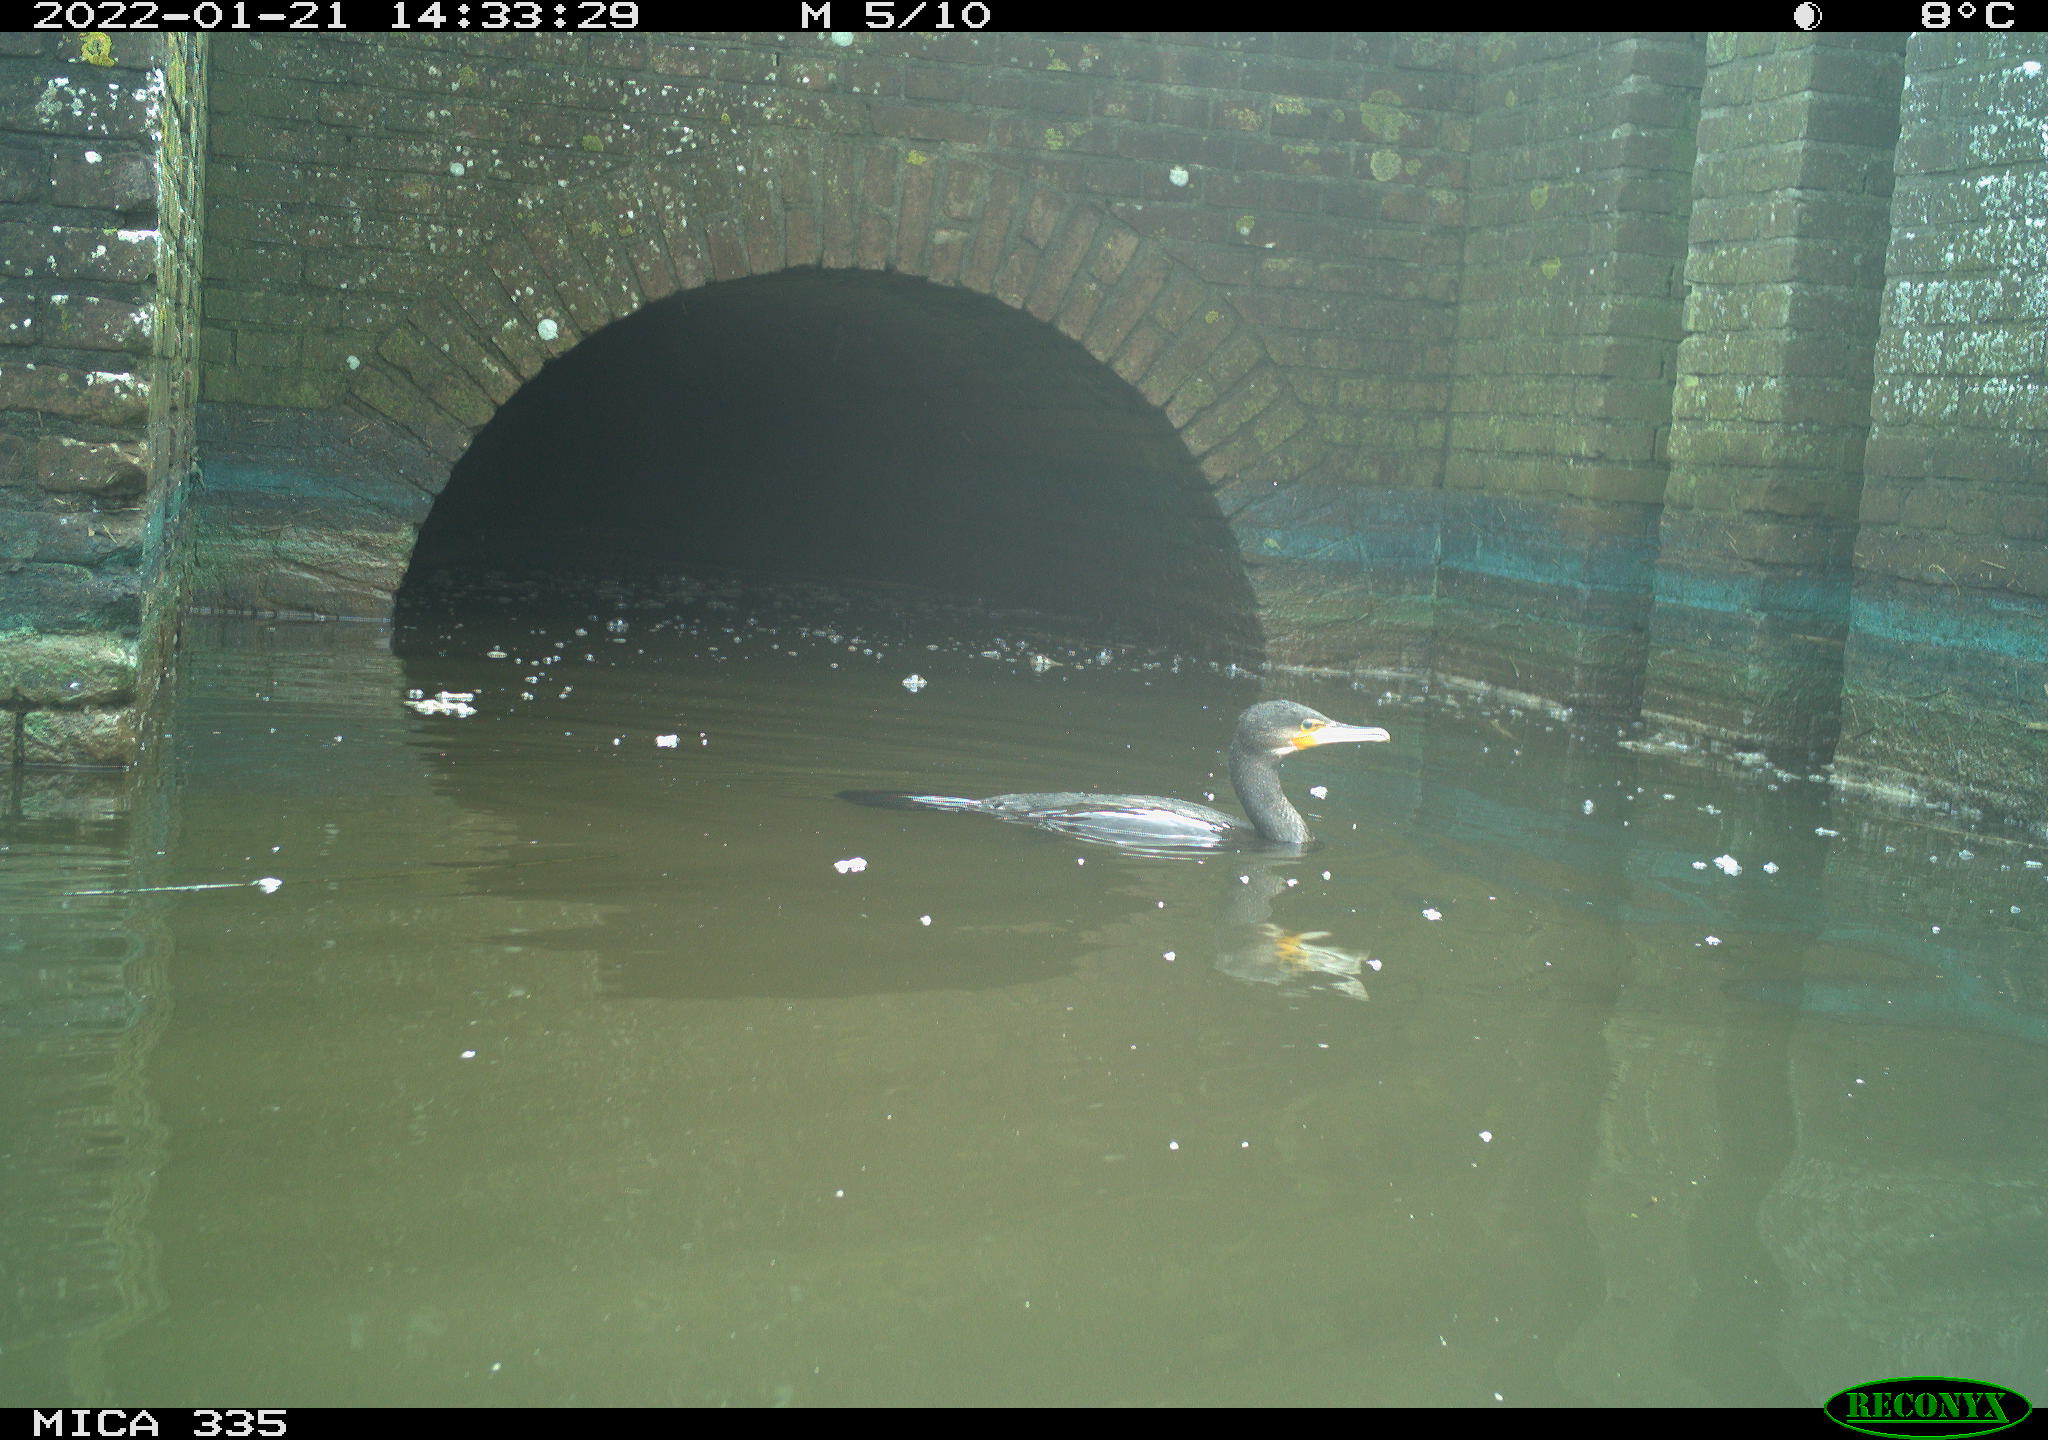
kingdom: Animalia
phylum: Chordata
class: Aves
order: Suliformes
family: Phalacrocoracidae
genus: Phalacrocorax
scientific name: Phalacrocorax carbo
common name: Great cormorant
